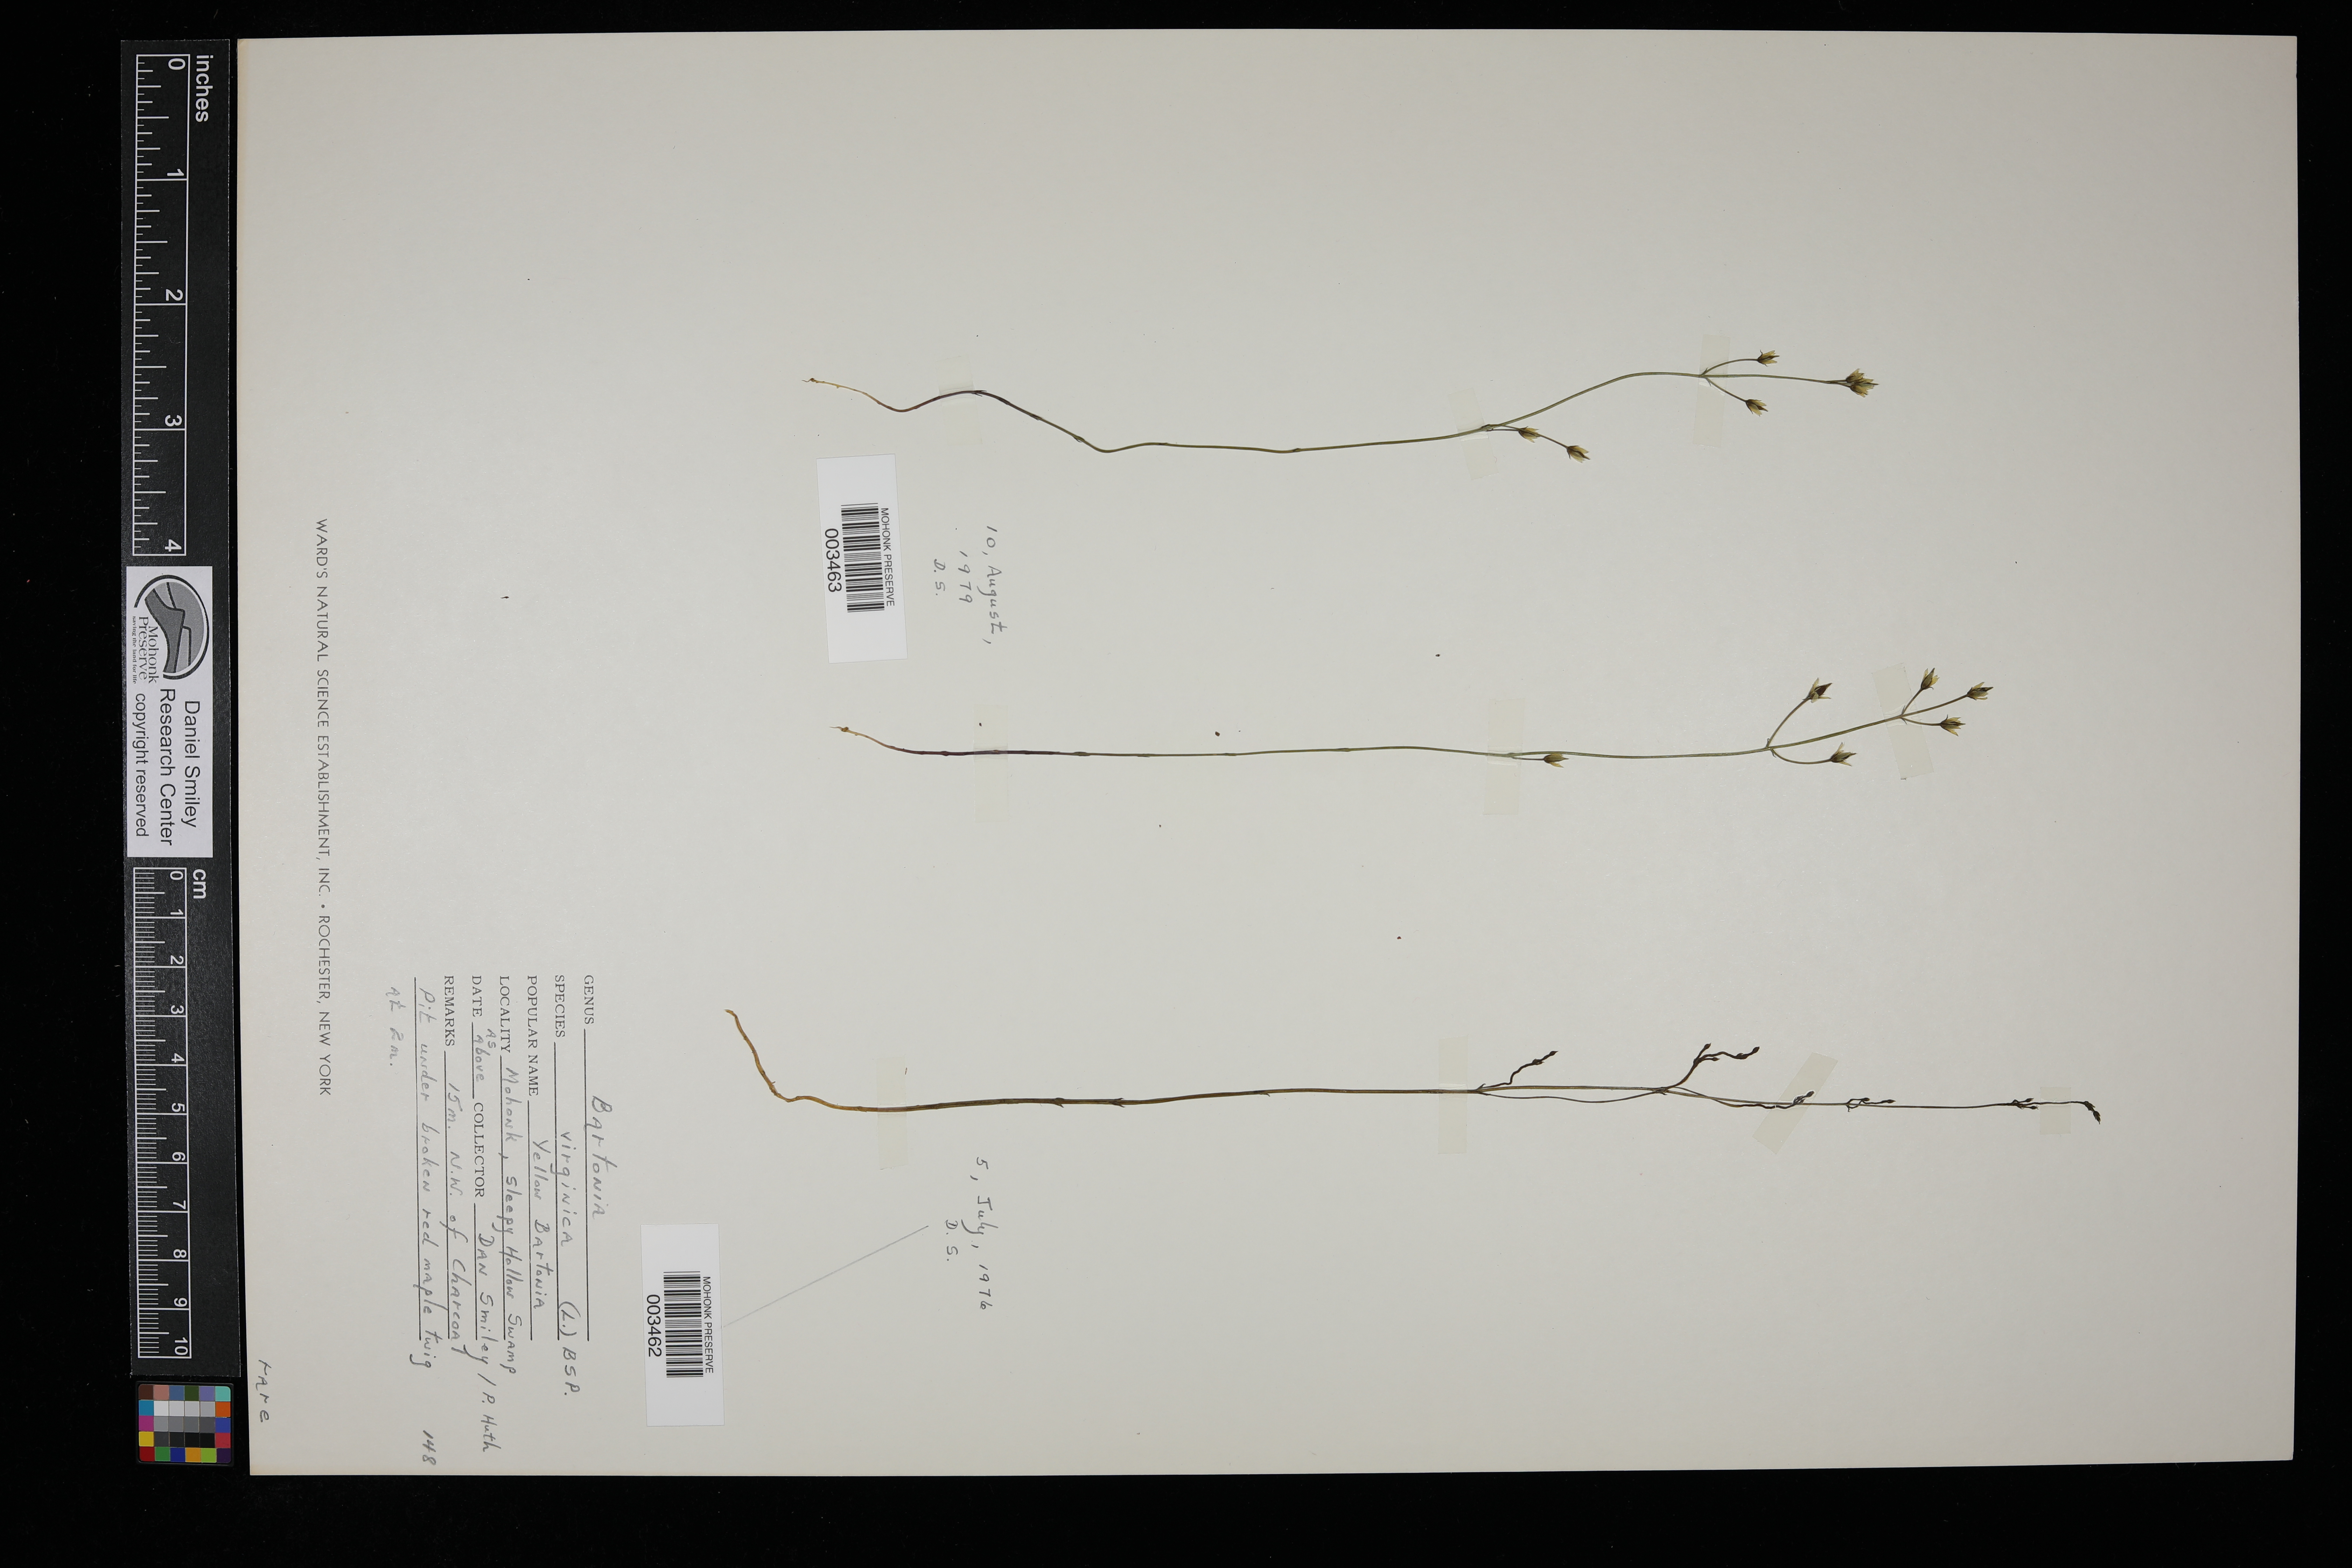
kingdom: Plantae
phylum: Tracheophyta
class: Magnoliopsida
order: Gentianales
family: Gentianaceae
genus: Bartonia
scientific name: Bartonia virginica
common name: Yellow bartonia
